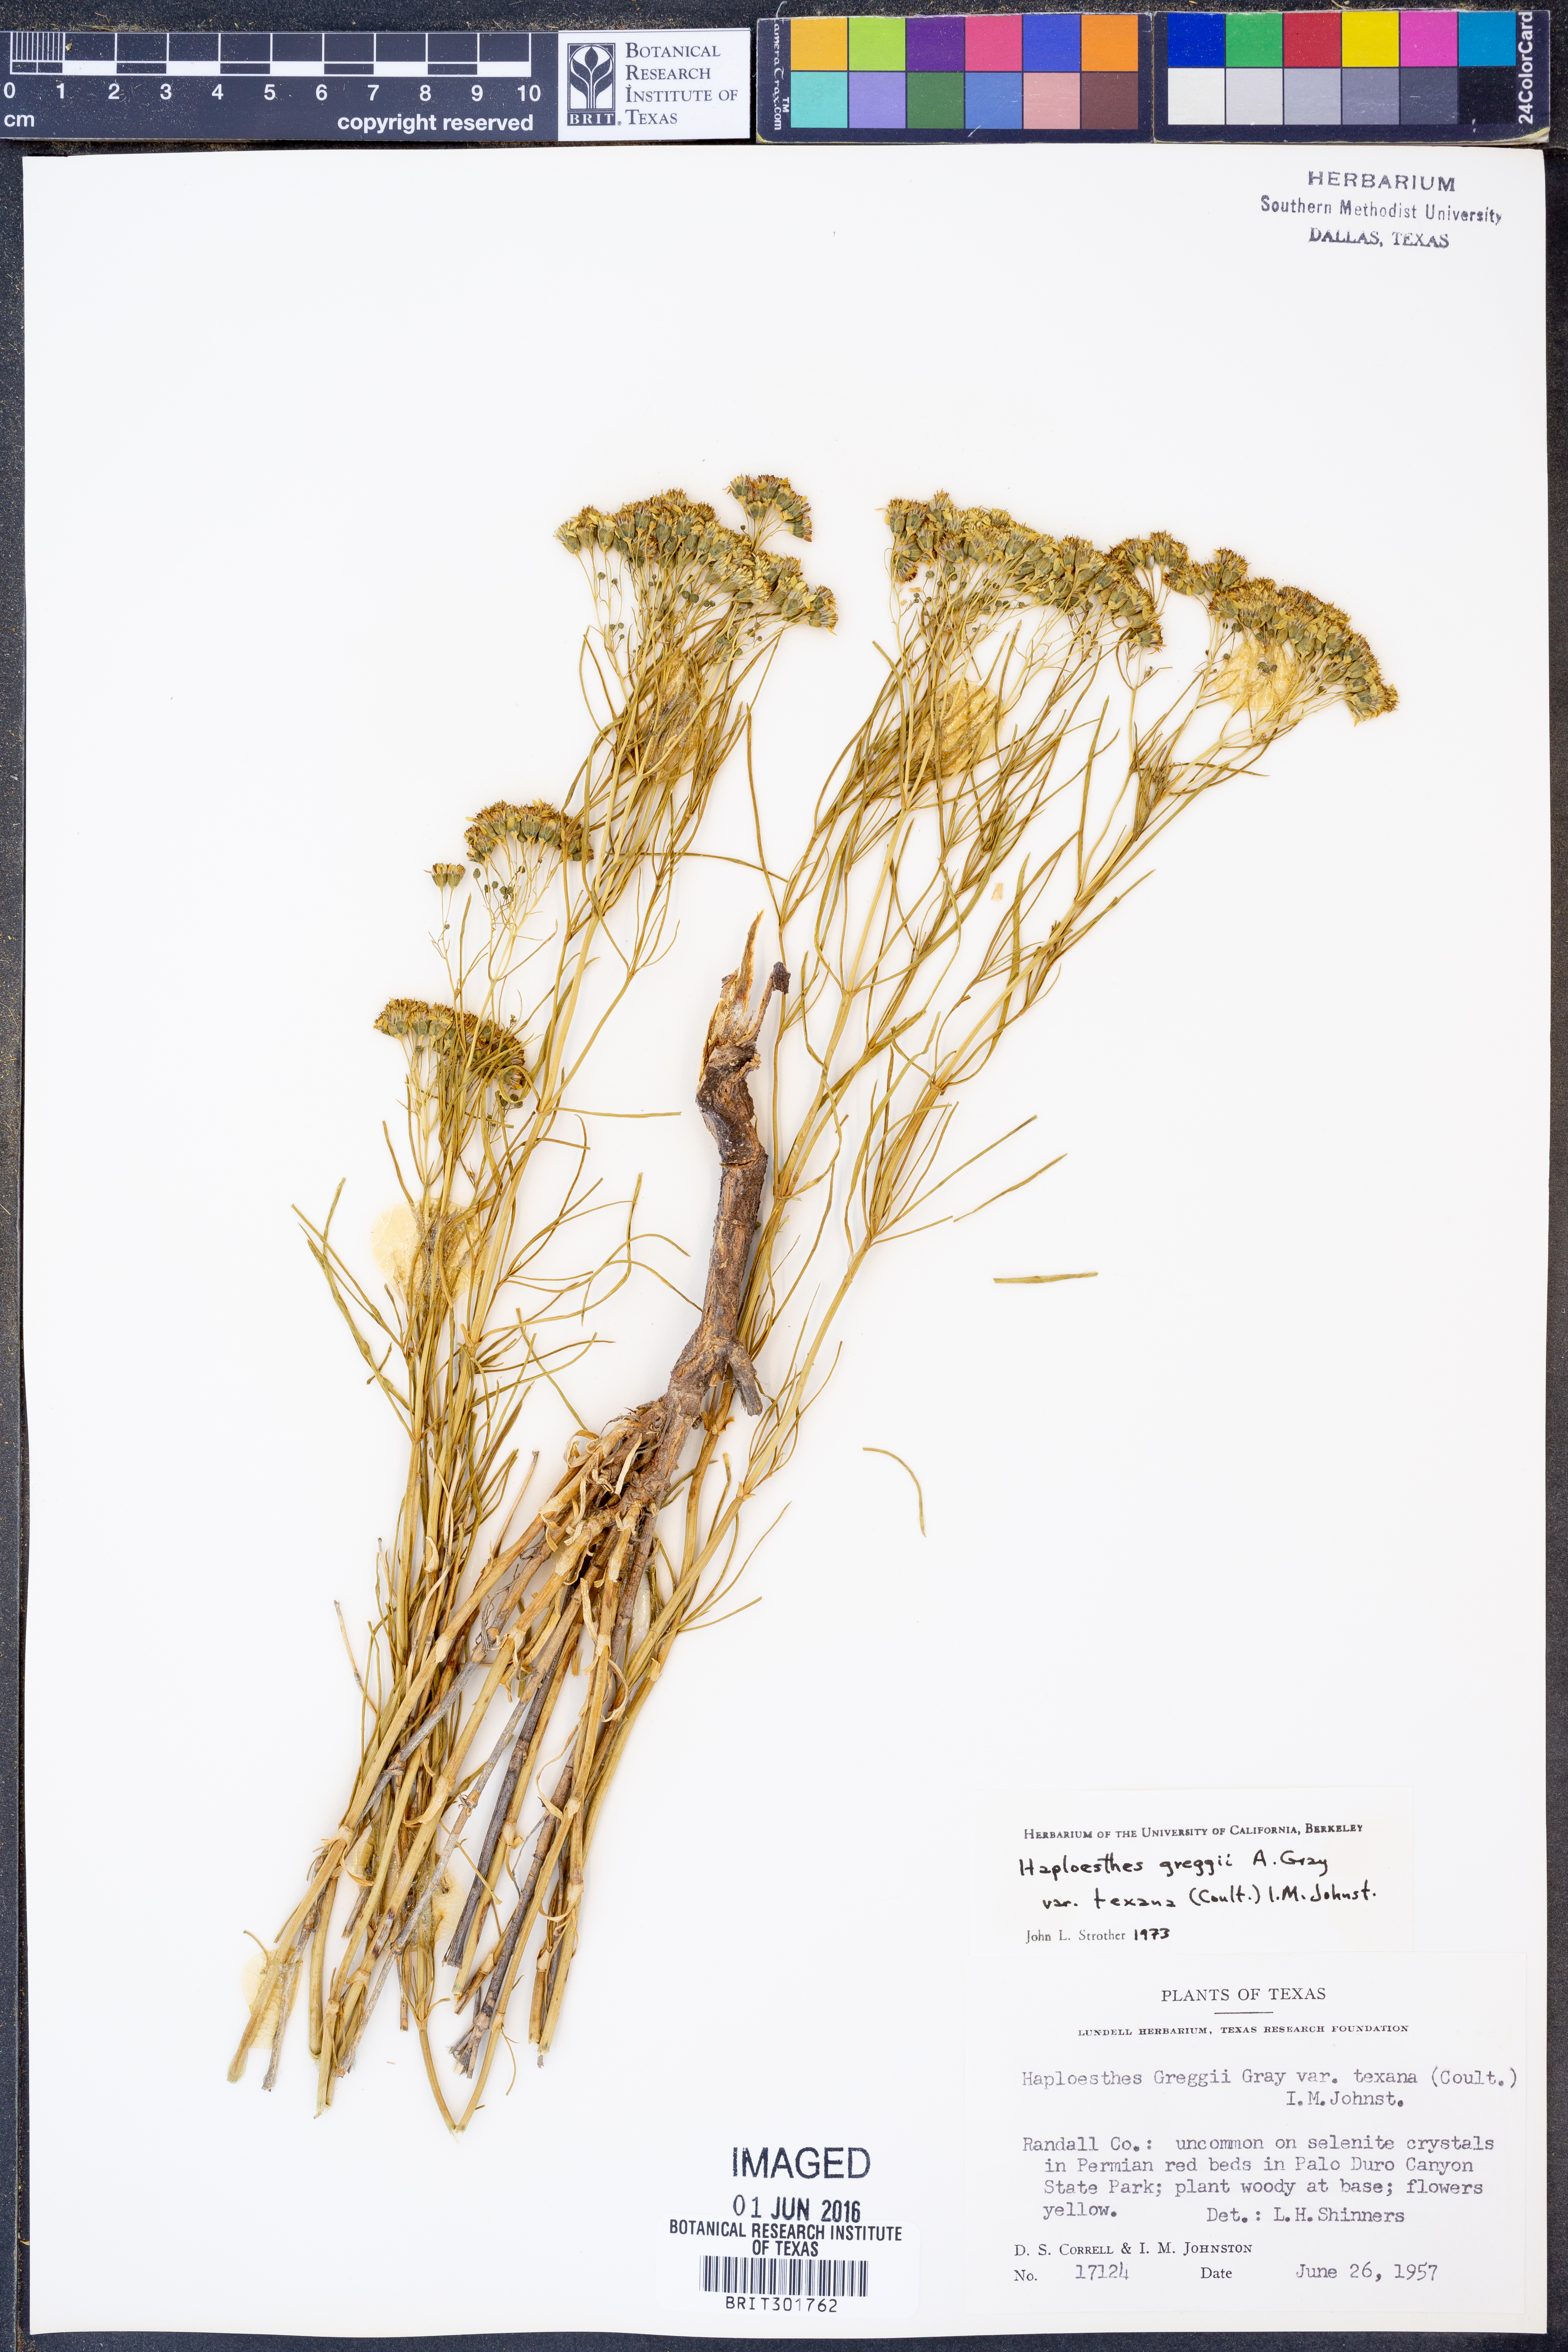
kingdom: Plantae
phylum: Tracheophyta
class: Magnoliopsida
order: Asterales
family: Asteraceae
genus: Haploesthes
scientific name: Haploesthes greggii
